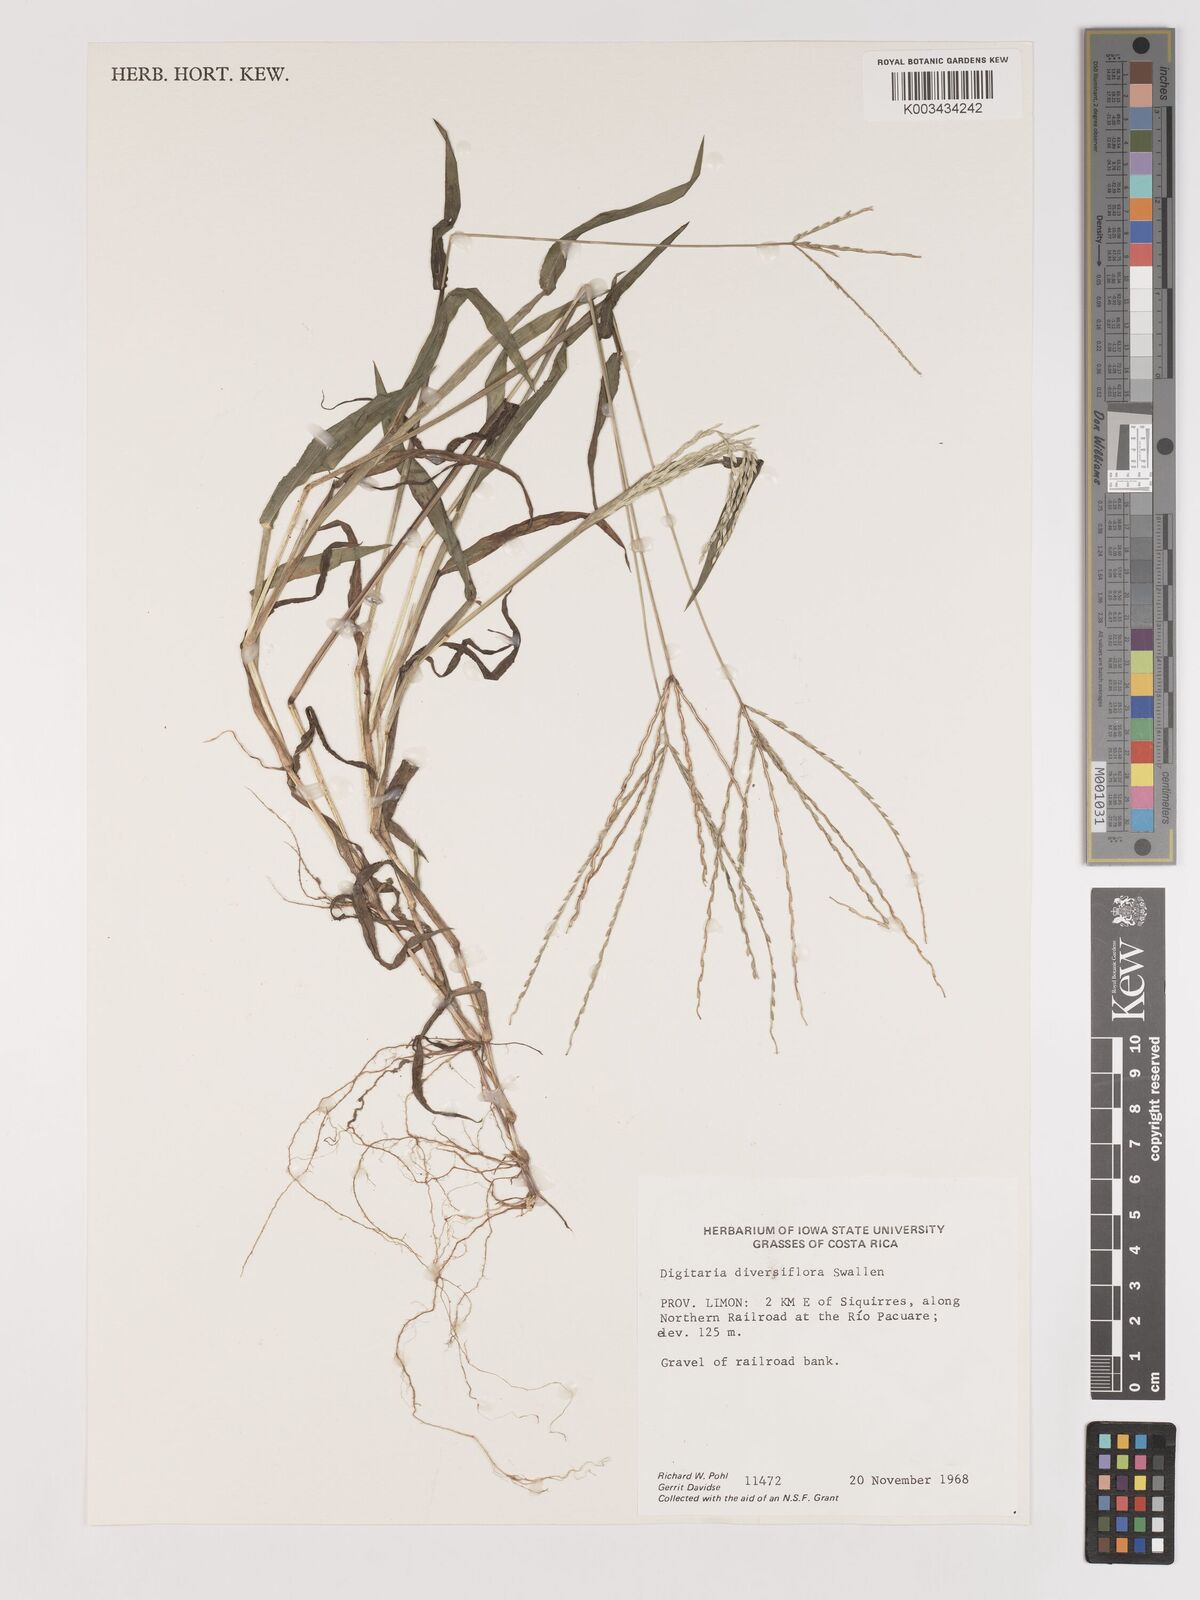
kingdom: Plantae
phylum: Tracheophyta
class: Liliopsida
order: Poales
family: Poaceae
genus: Digitaria
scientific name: Digitaria bicornis
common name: Asian crabgrass
